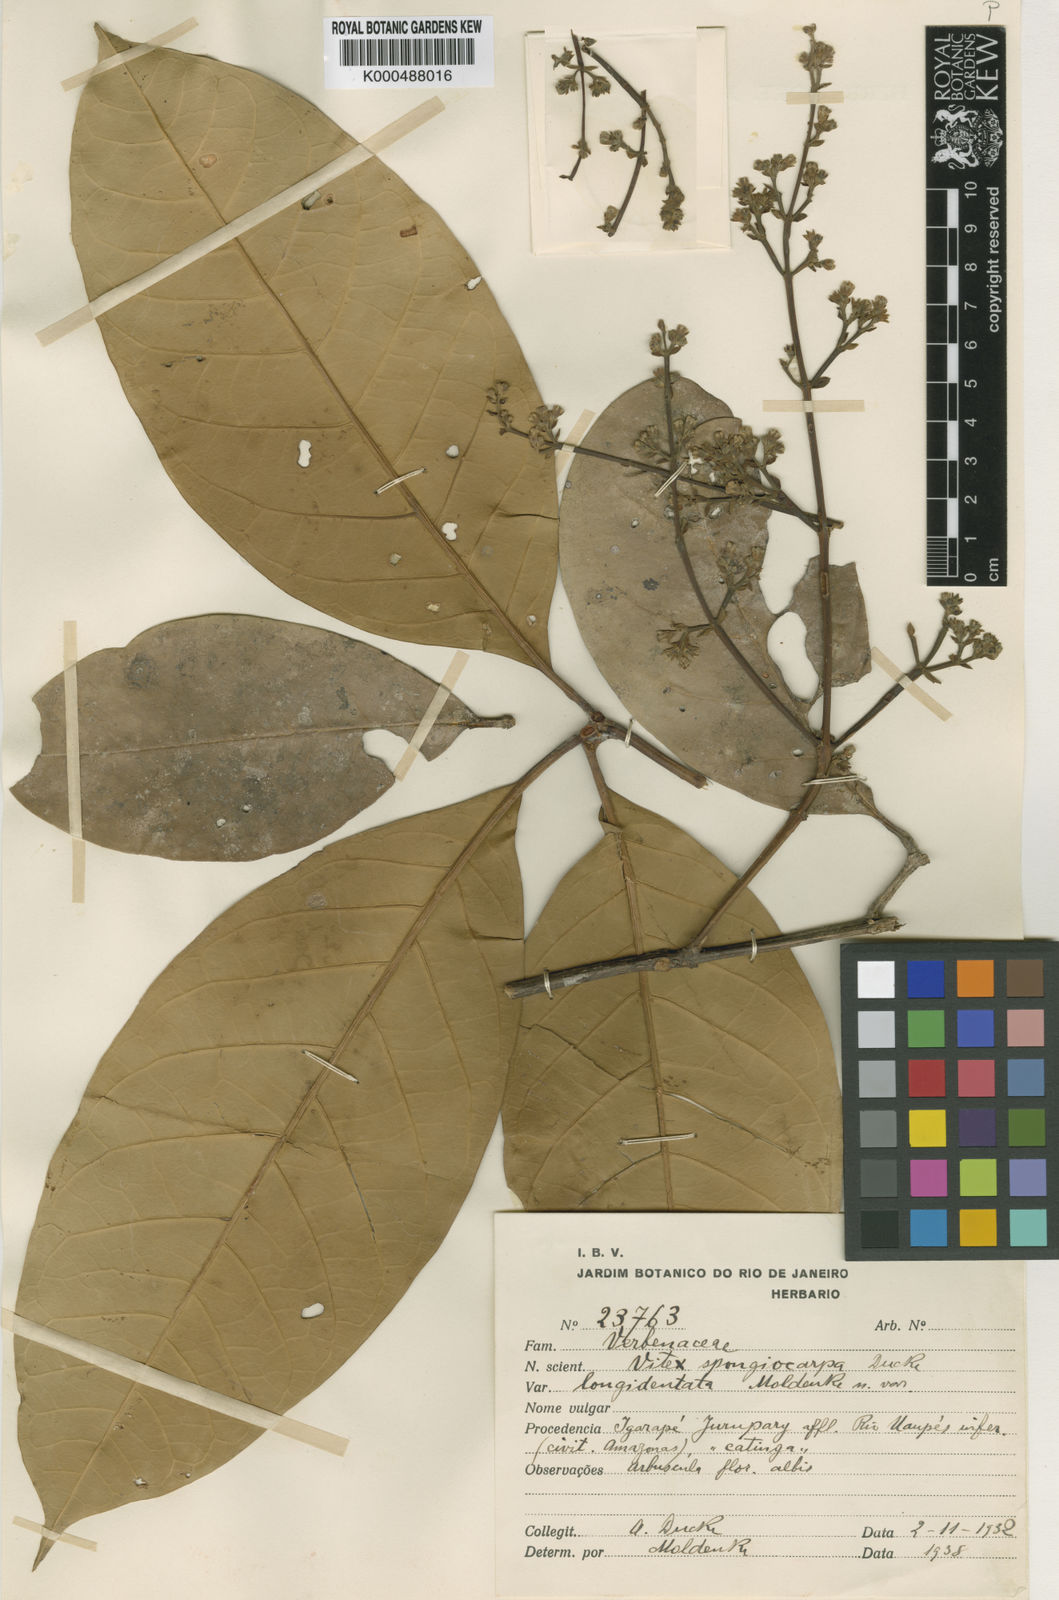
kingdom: Plantae
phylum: Tracheophyta
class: Magnoliopsida
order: Lamiales
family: Lamiaceae
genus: Vitex
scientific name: Vitex sprucei
